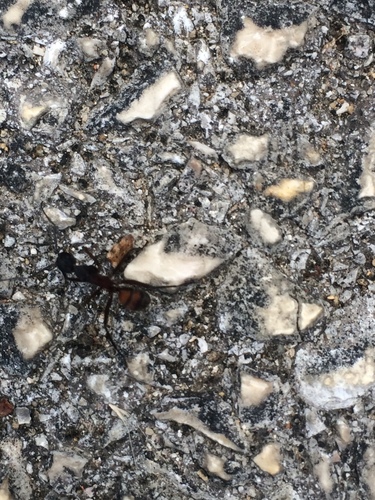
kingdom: Animalia
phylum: Arthropoda
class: Insecta
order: Hymenoptera
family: Formicidae
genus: Camponotus
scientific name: Camponotus cruentatus
